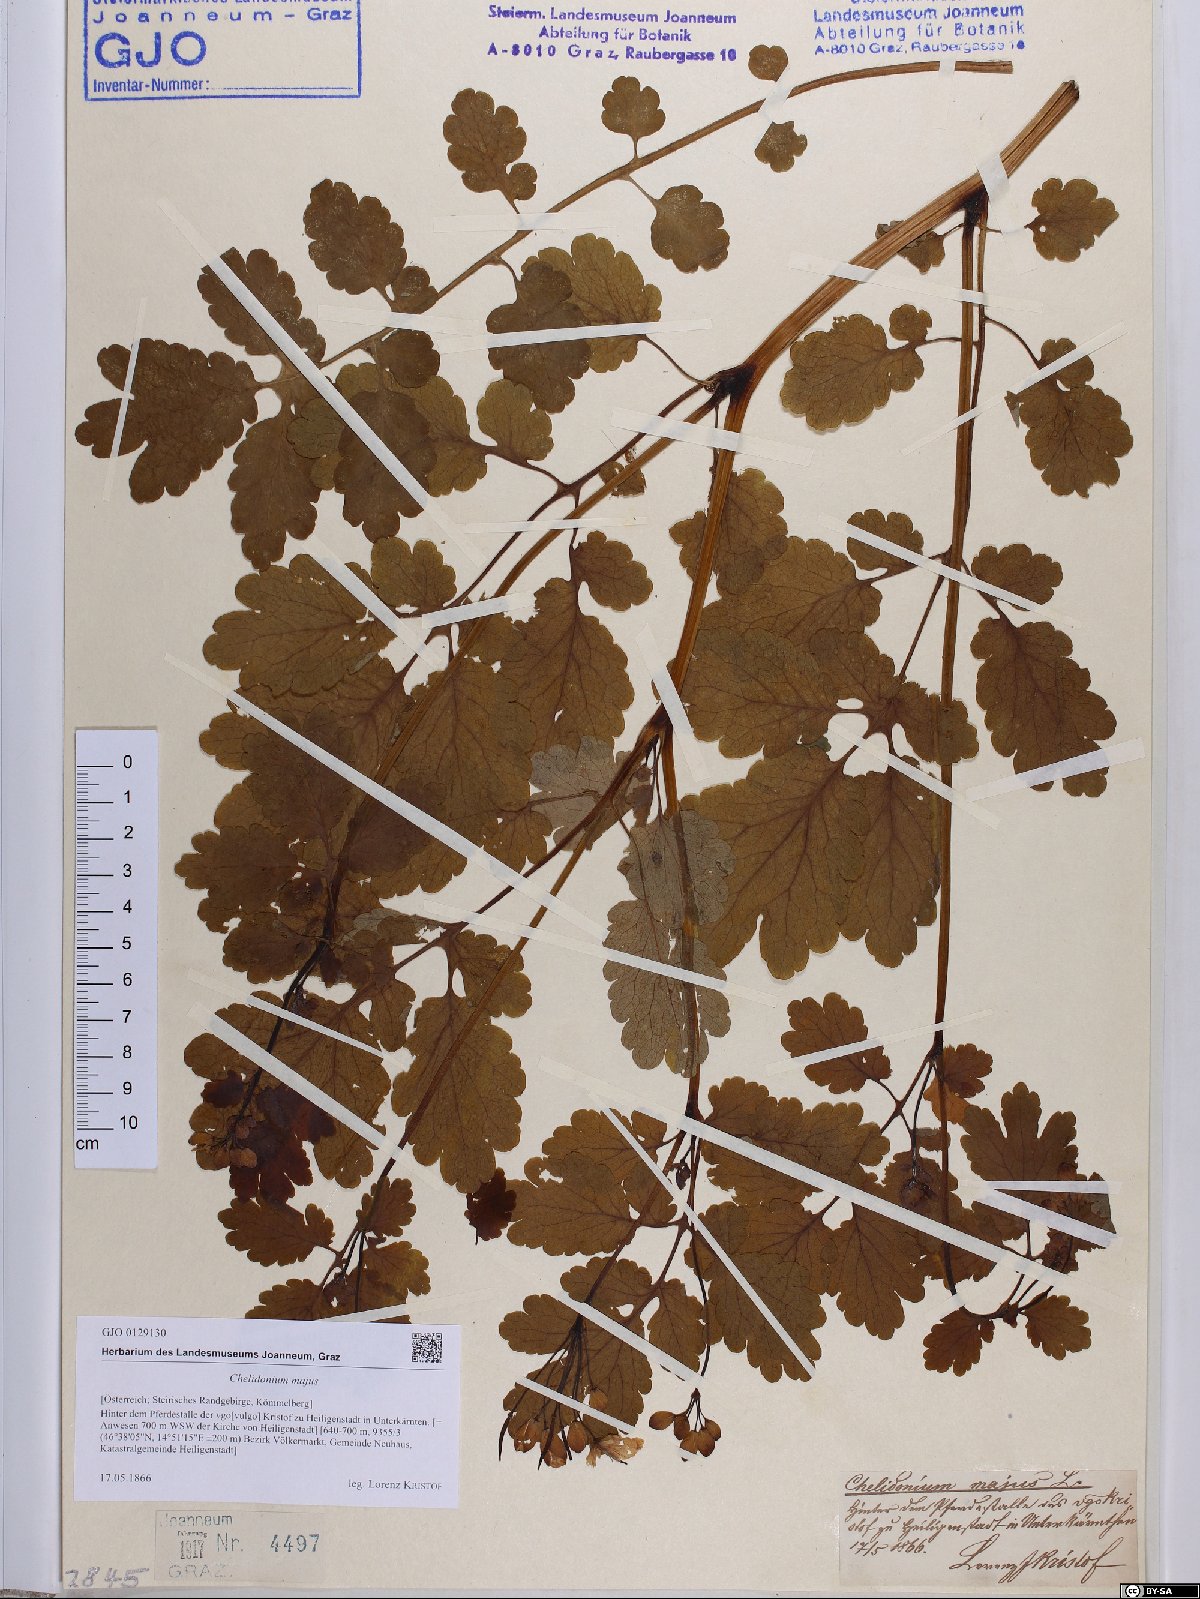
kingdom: Plantae
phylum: Tracheophyta
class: Magnoliopsida
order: Ranunculales
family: Papaveraceae
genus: Chelidonium
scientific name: Chelidonium majus
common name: Greater celandine
